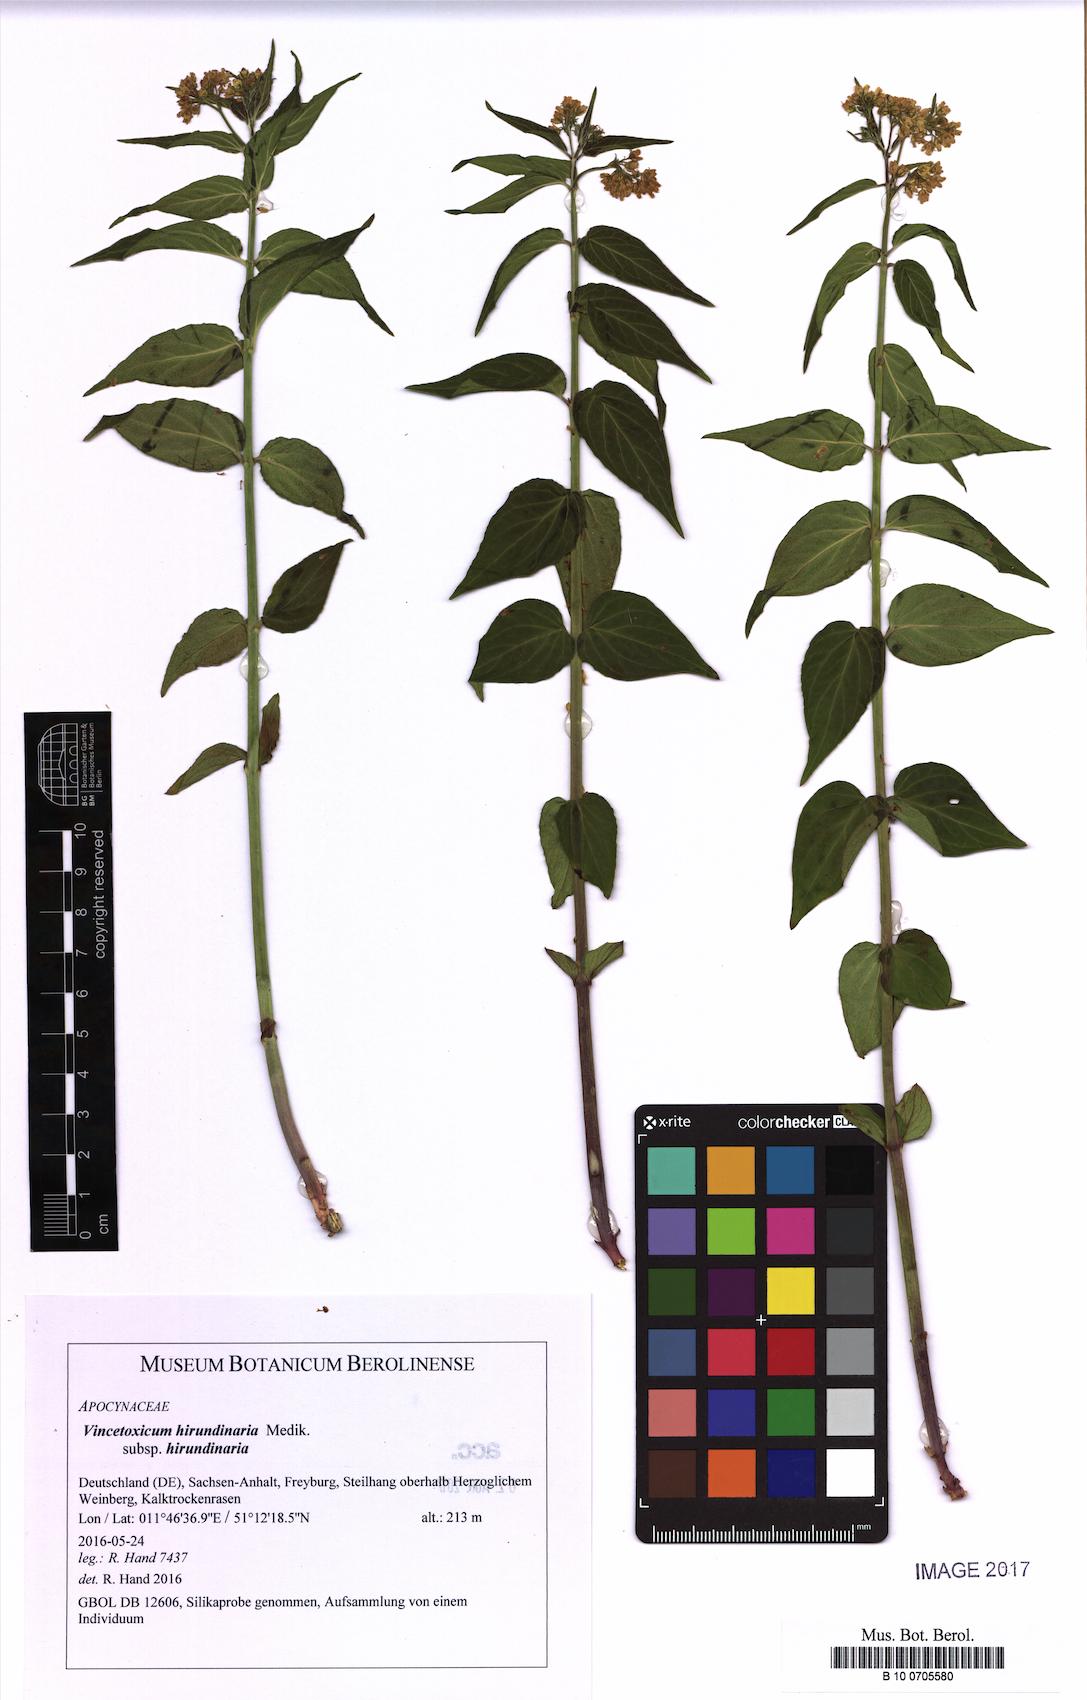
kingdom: Plantae
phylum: Tracheophyta
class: Magnoliopsida
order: Gentianales
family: Apocynaceae
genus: Vincetoxicum
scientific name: Vincetoxicum hirundinaria
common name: White swallowwort
